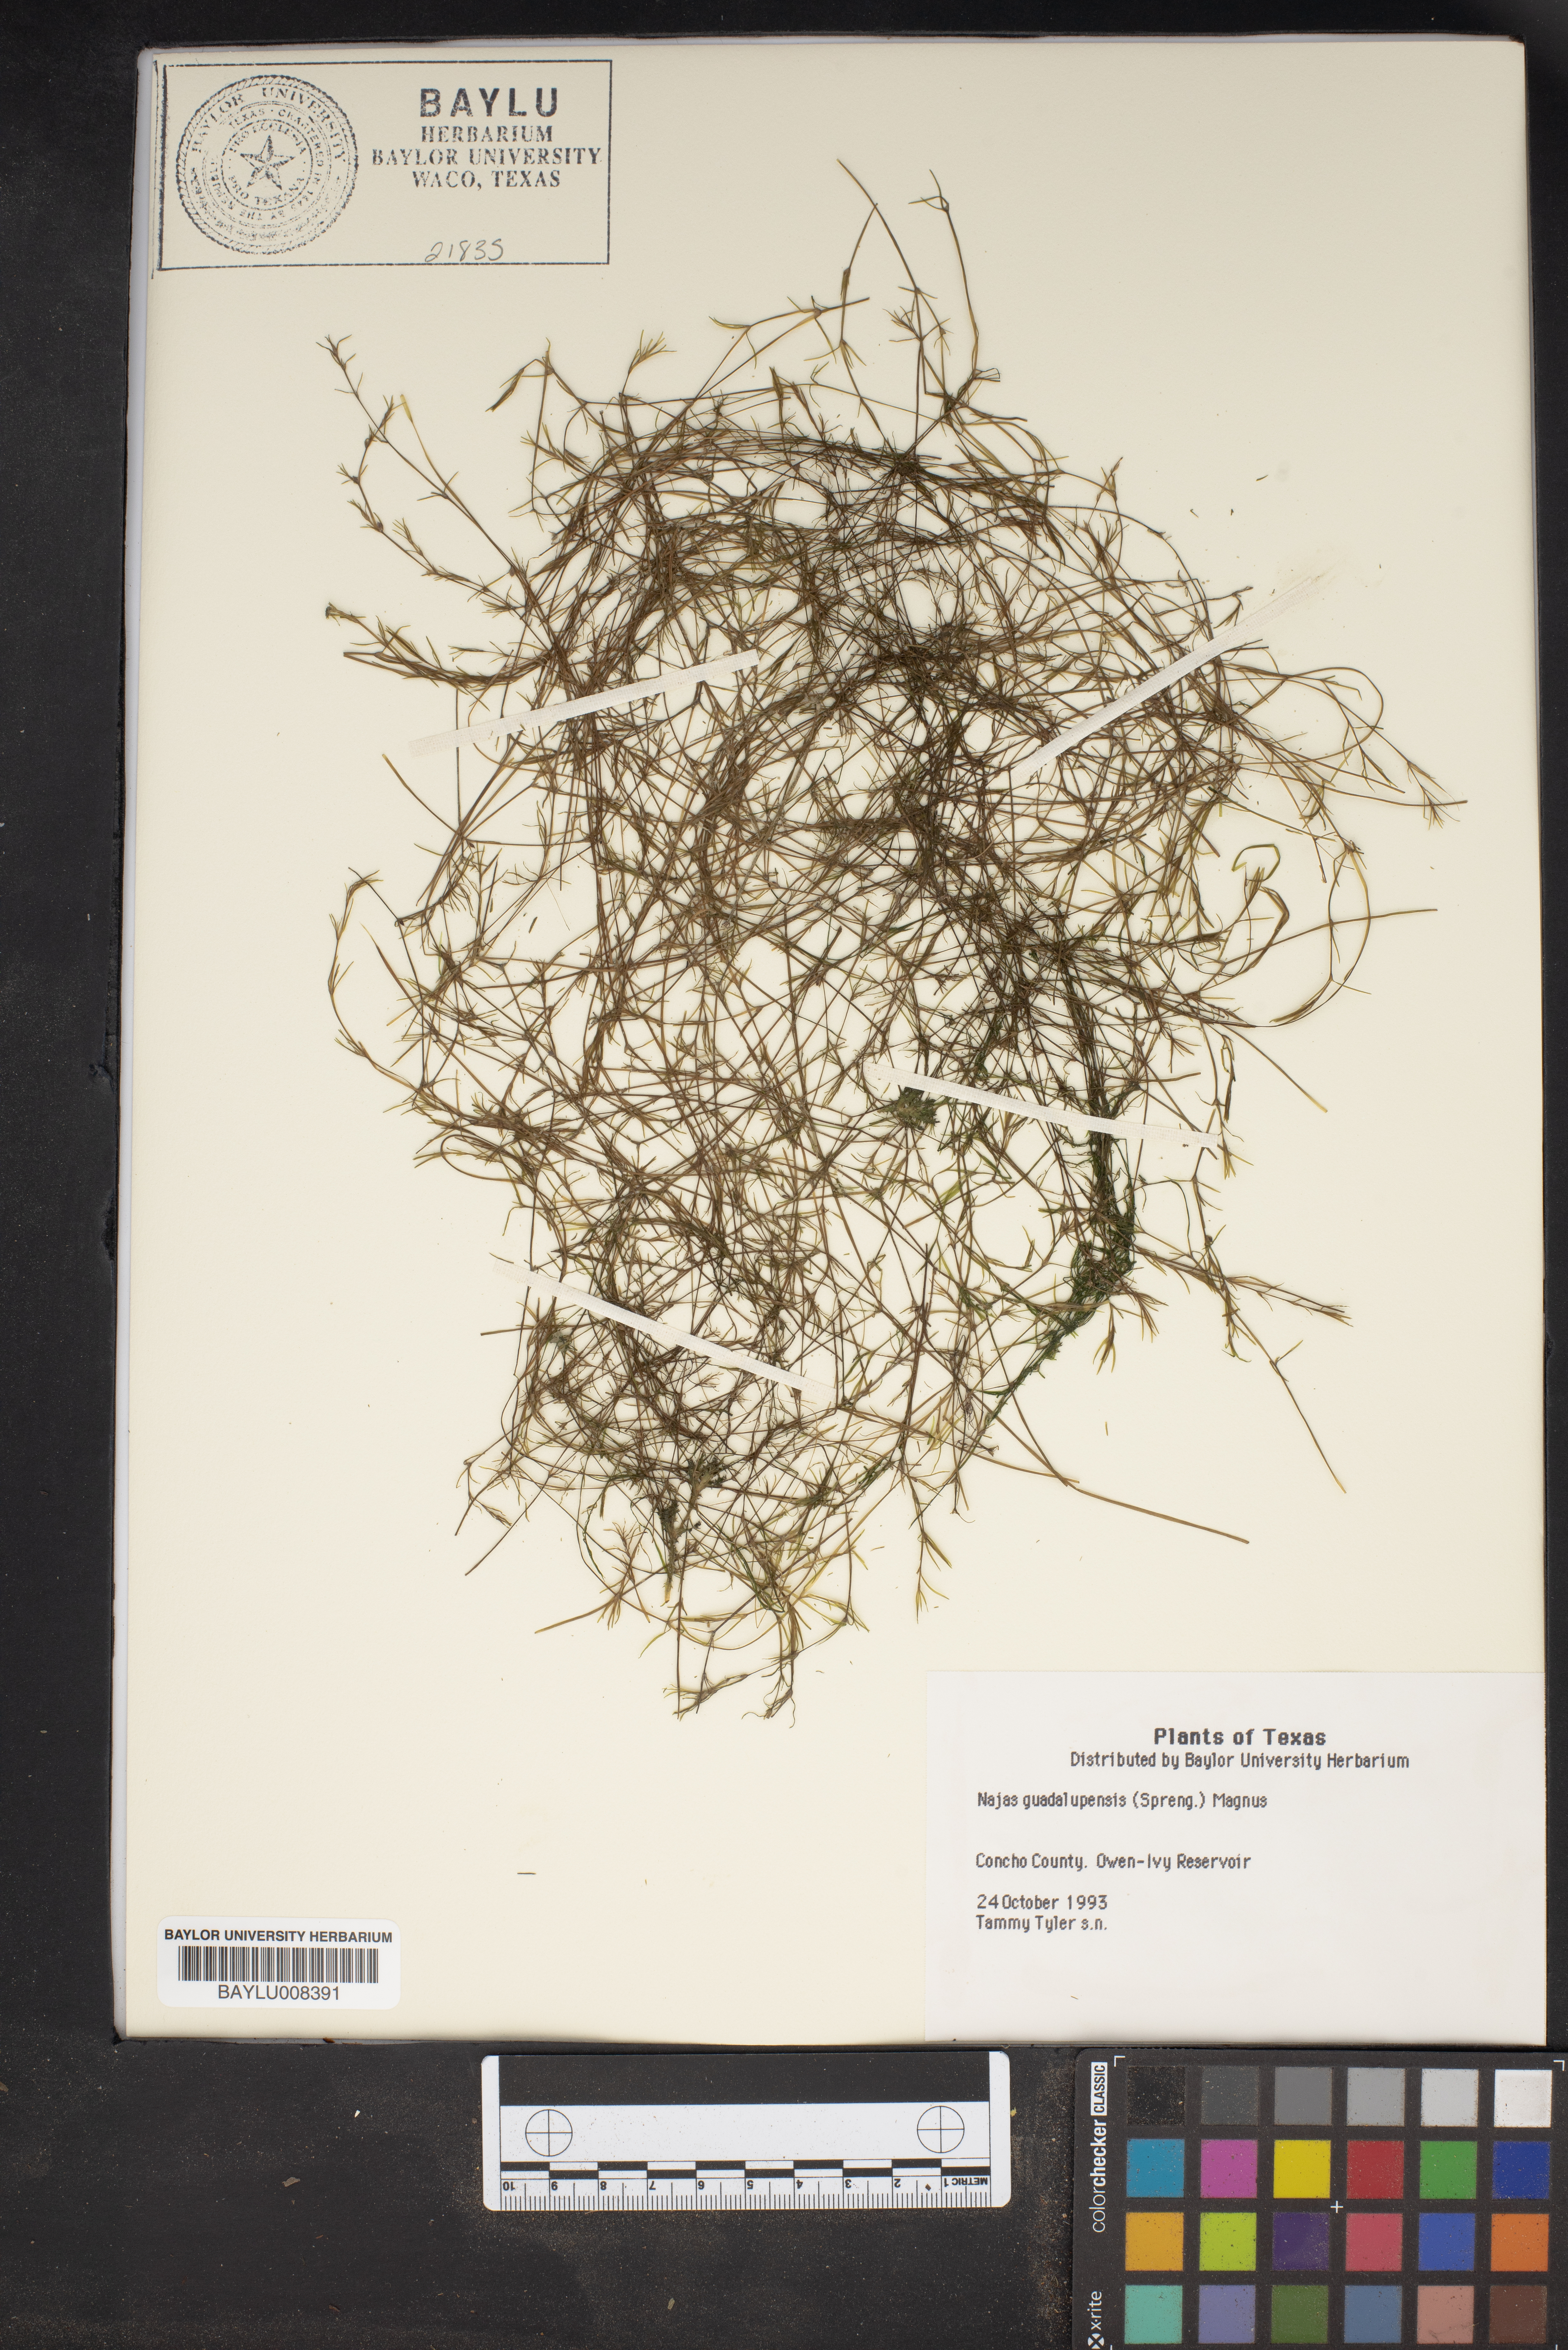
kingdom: Plantae
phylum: Tracheophyta
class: Liliopsida
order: Alismatales
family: Hydrocharitaceae
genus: Najas
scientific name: Najas guadalupensis
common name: Southern naiad
